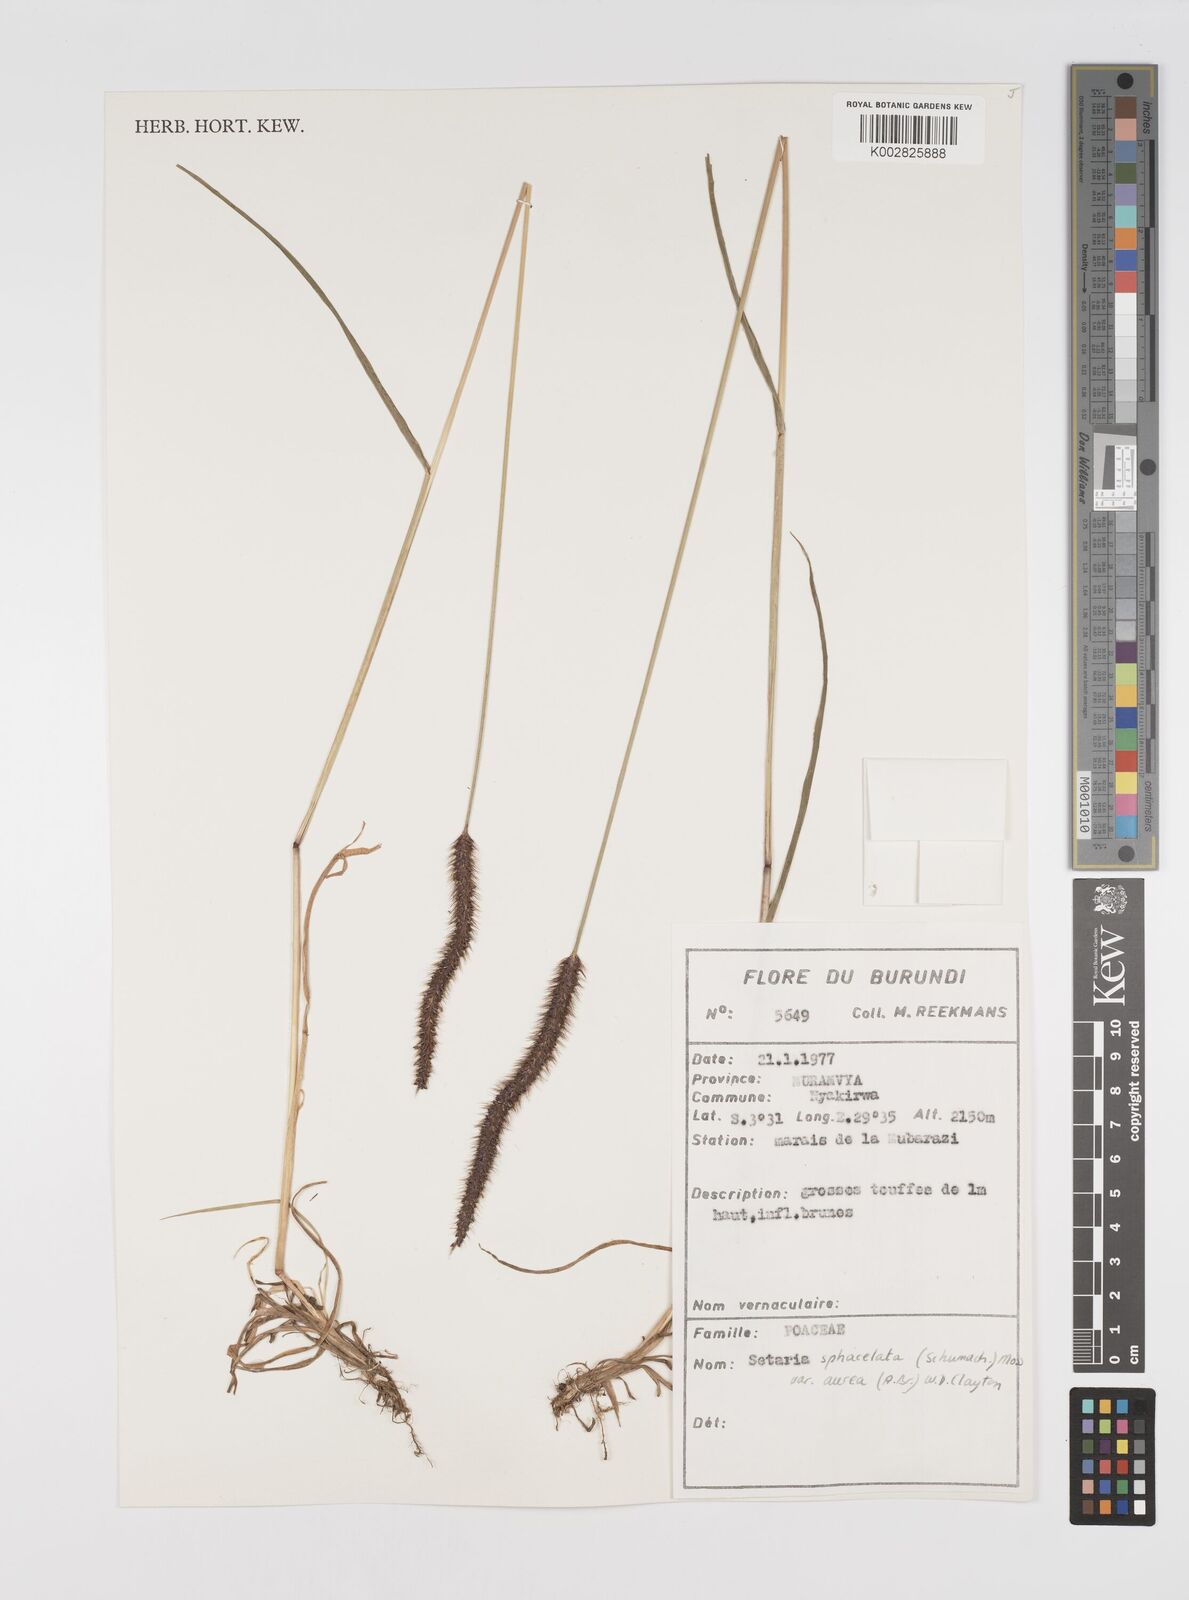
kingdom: Plantae
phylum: Tracheophyta
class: Liliopsida
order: Poales
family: Poaceae
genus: Setaria
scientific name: Setaria sphacelata
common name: African bristlegrass
